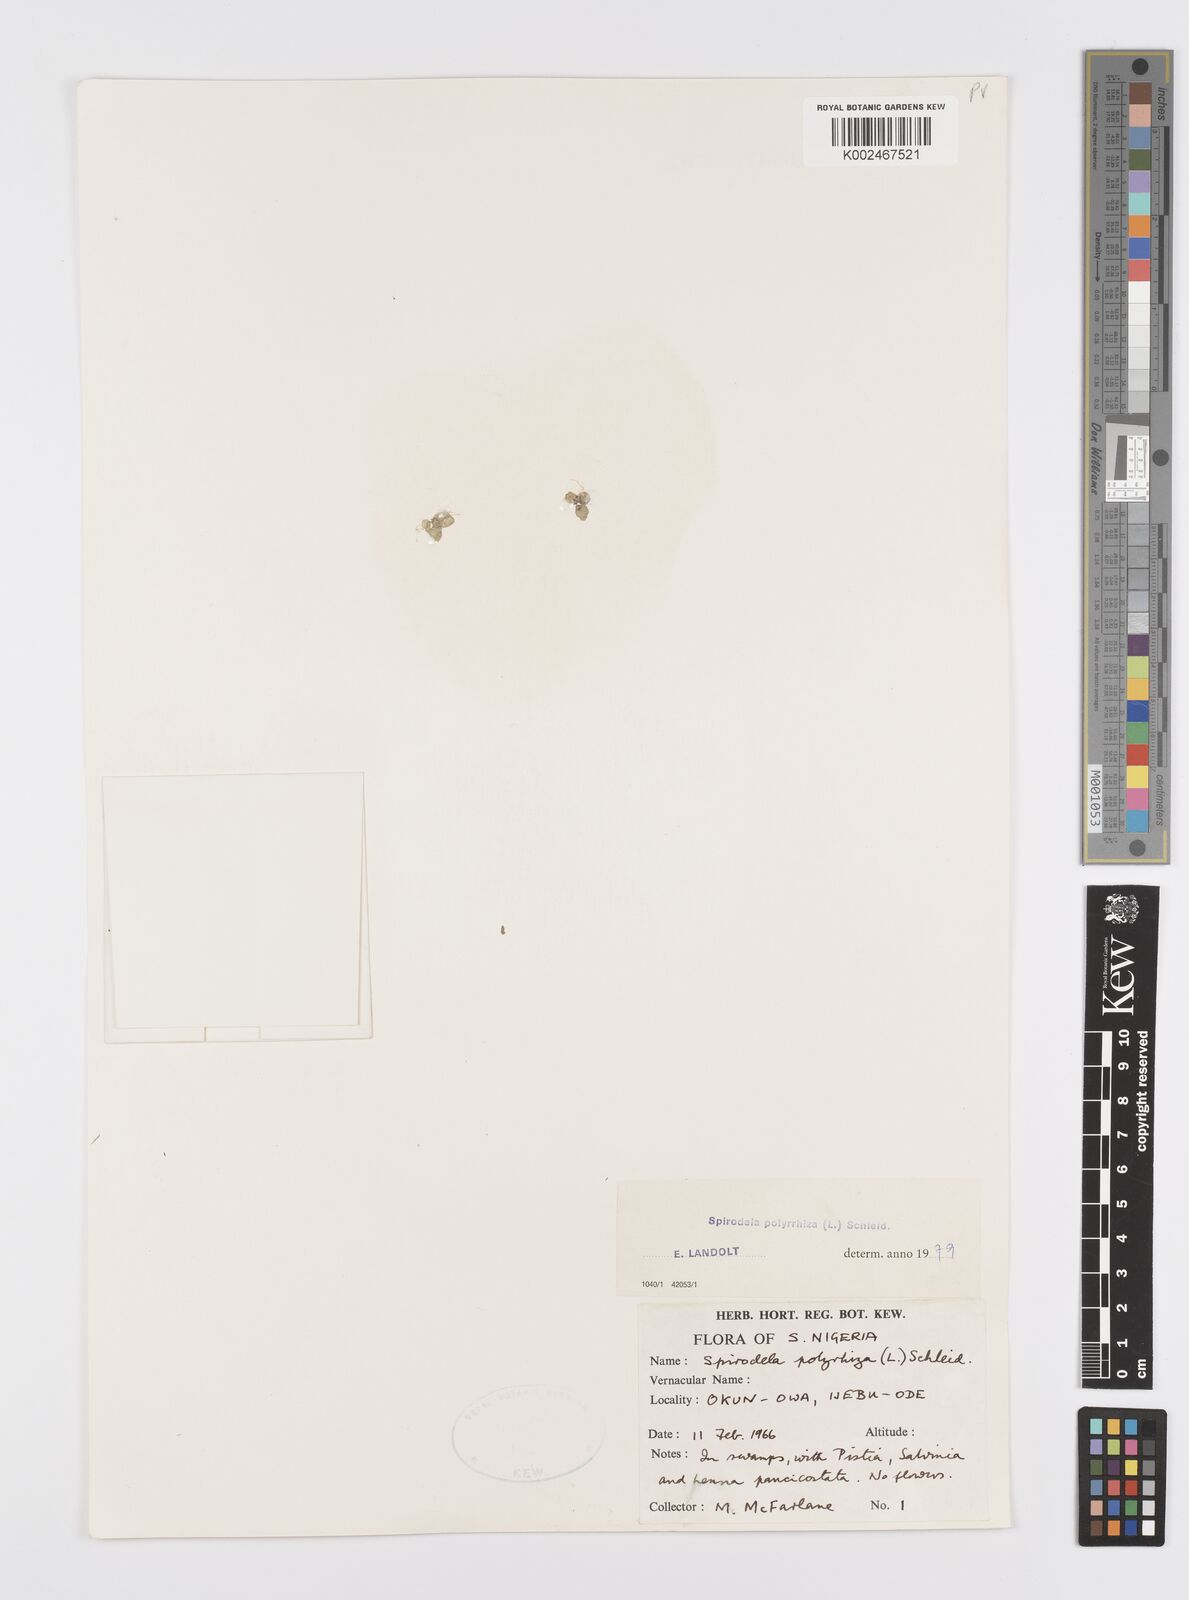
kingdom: Plantae
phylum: Tracheophyta
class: Liliopsida
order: Alismatales
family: Araceae
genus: Spirodela
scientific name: Spirodela polyrhiza
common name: Great duckweed
